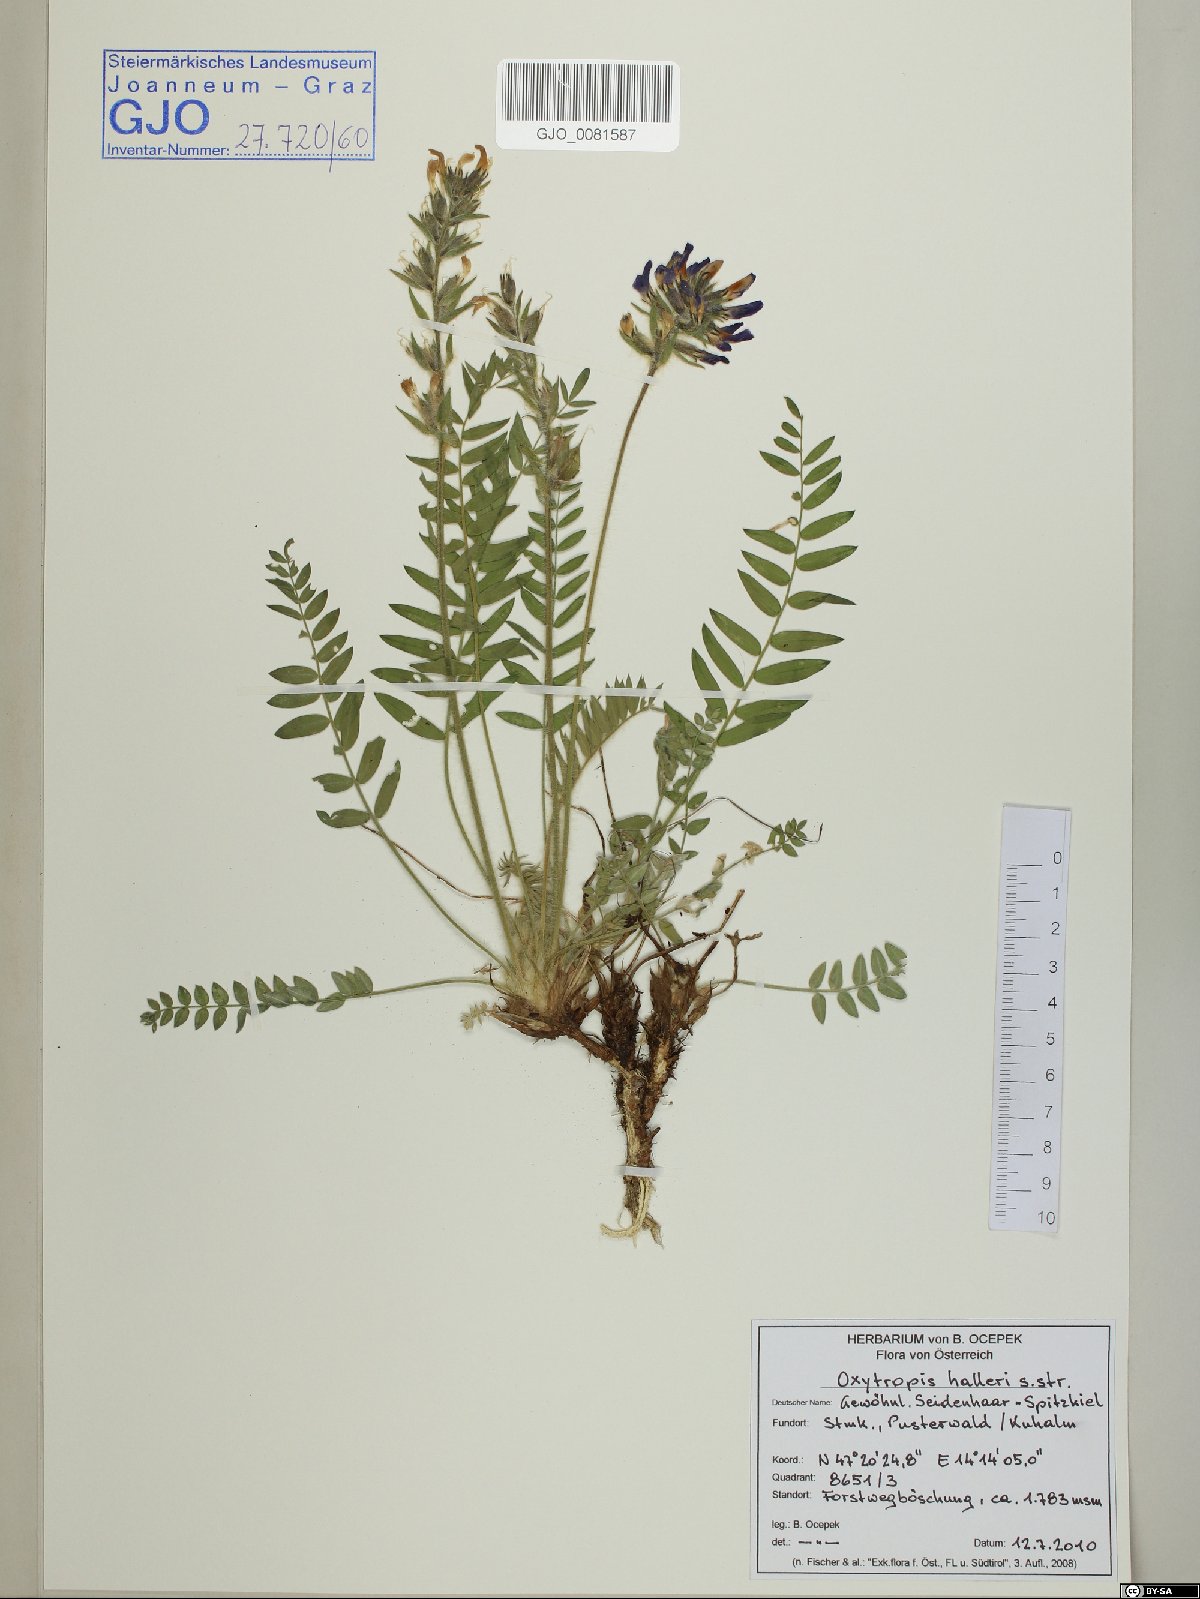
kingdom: Plantae
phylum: Tracheophyta
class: Magnoliopsida
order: Fabales
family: Fabaceae
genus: Oxytropis
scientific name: Oxytropis halleri
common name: Purple oxytropis
